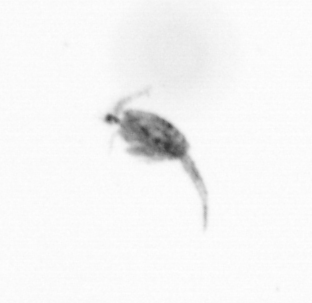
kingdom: Animalia
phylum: Arthropoda
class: Copepoda
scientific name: Copepoda
